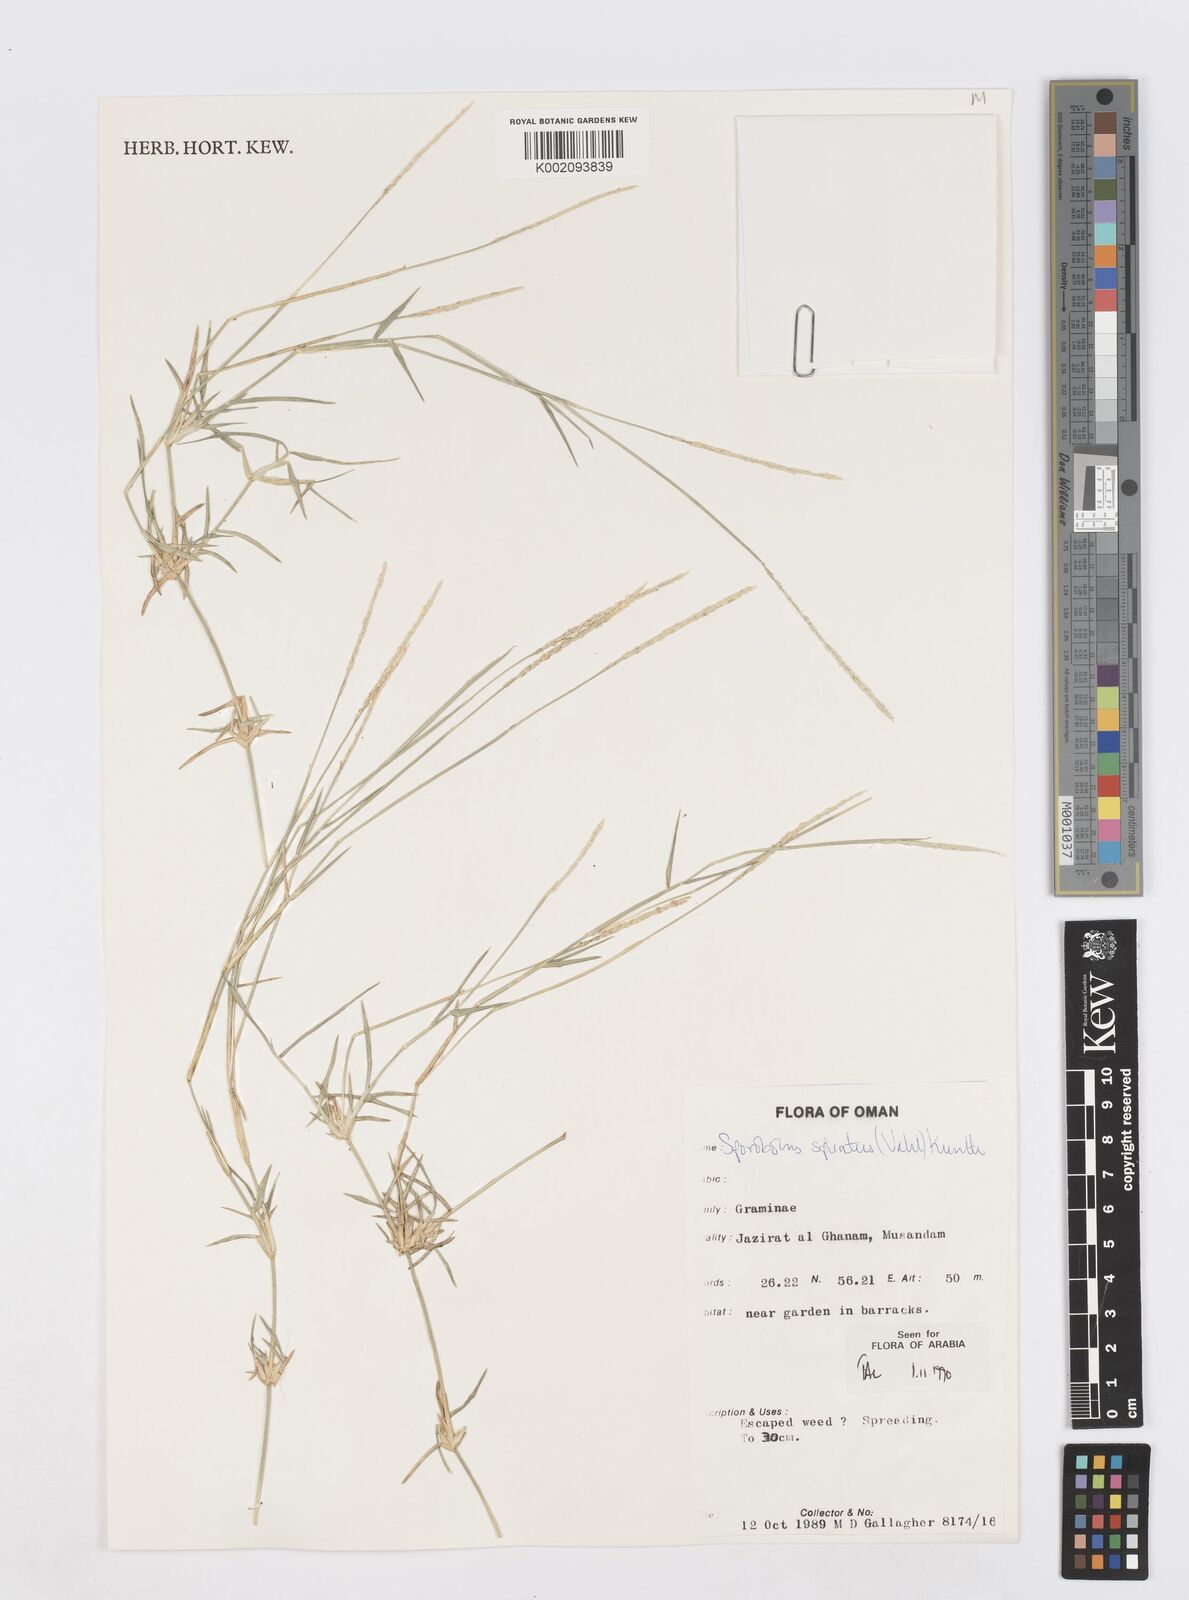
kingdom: Plantae
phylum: Tracheophyta
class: Liliopsida
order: Poales
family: Poaceae
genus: Sporobolus
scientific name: Sporobolus spicatus
